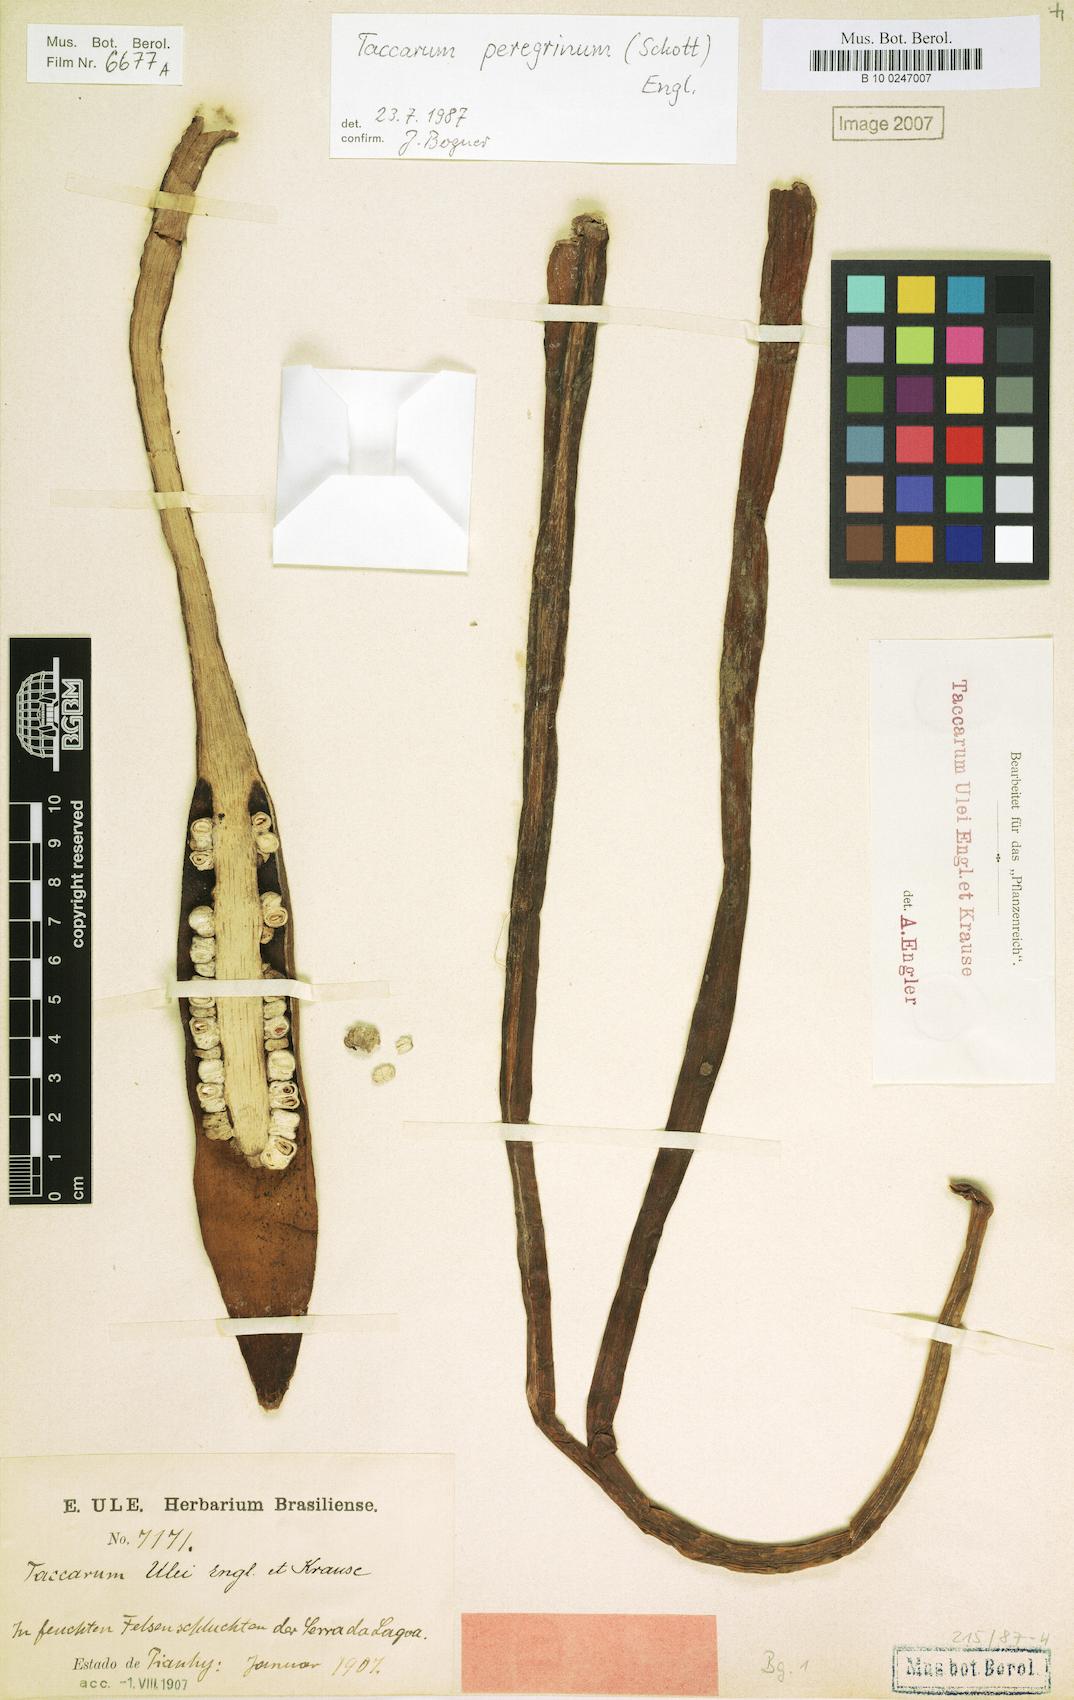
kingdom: Plantae
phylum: Tracheophyta
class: Liliopsida
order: Alismatales
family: Araceae
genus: Taccarum
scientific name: Taccarum peregrinum
